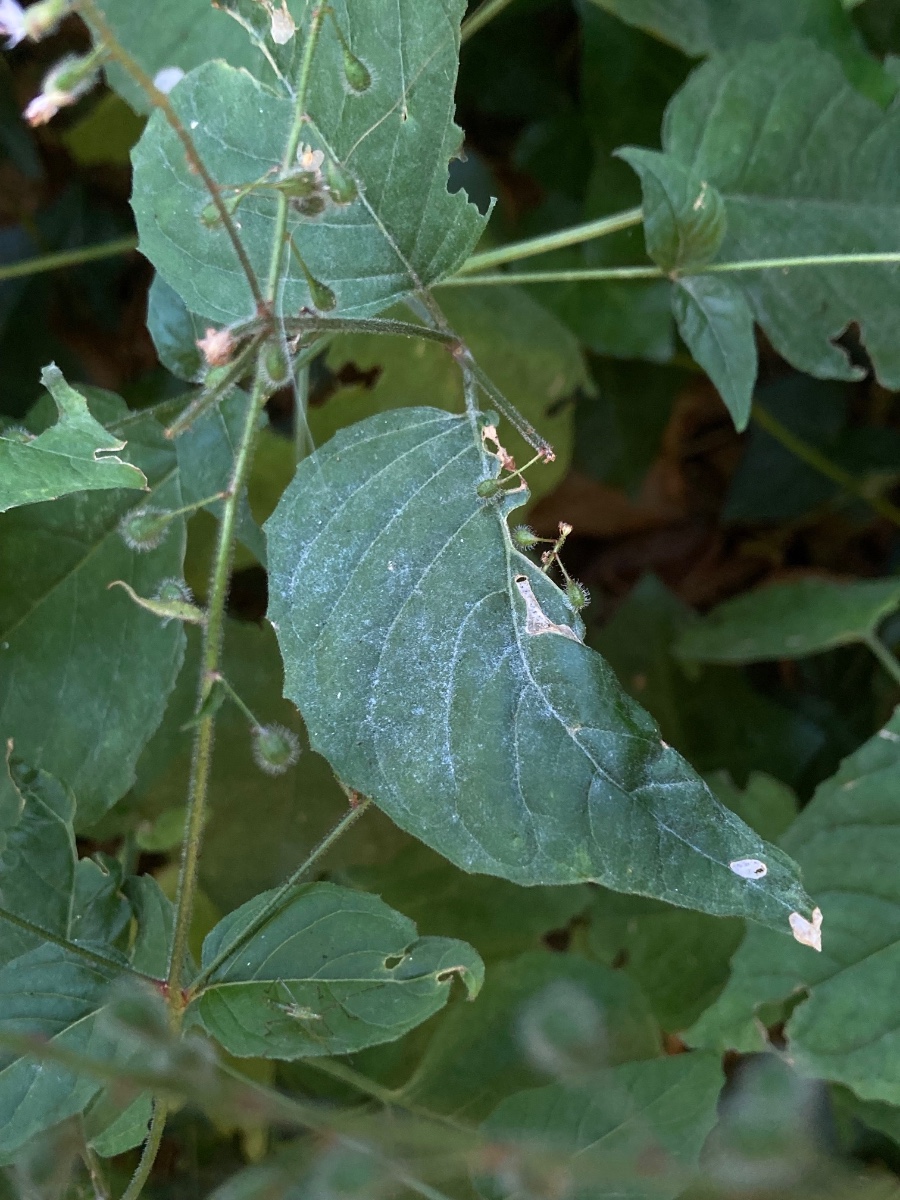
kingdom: Fungi
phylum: Ascomycota
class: Leotiomycetes
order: Helotiales
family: Erysiphaceae
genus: Erysiphe
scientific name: Erysiphe circaeae
